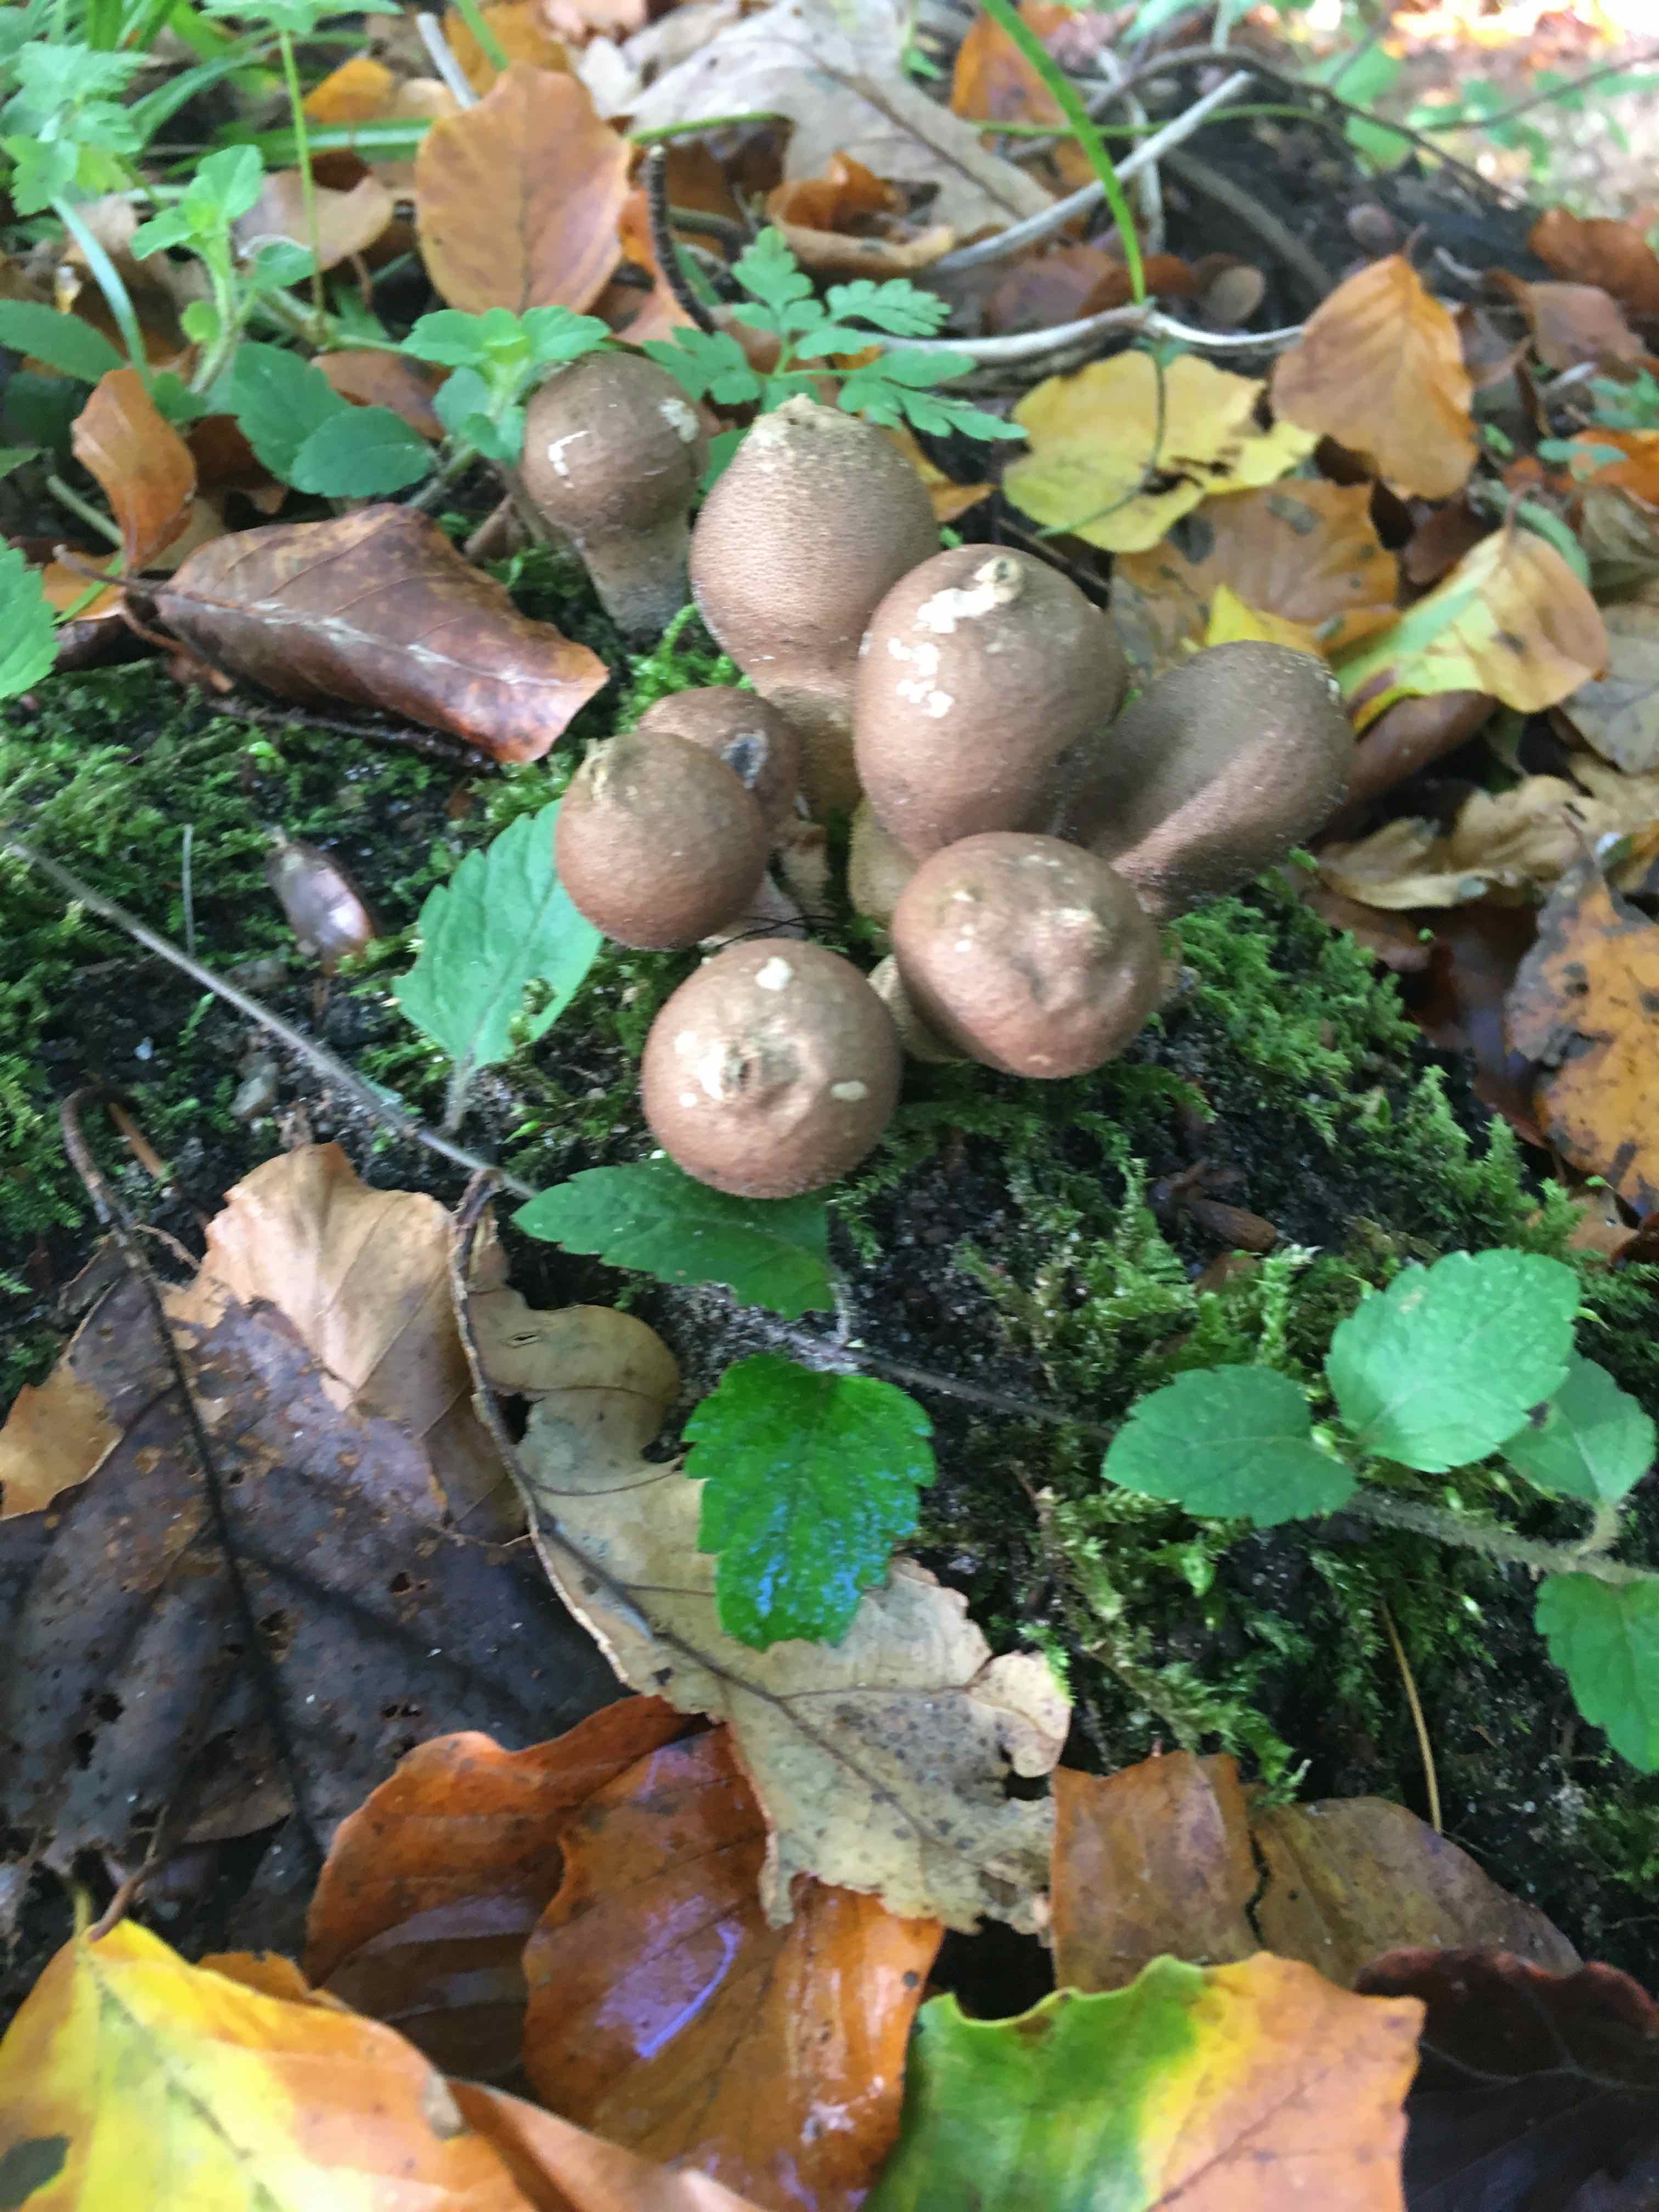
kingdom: Fungi
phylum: Basidiomycota
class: Agaricomycetes
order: Agaricales
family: Lycoperdaceae
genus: Apioperdon
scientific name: Apioperdon pyriforme
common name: pære-støvbold
